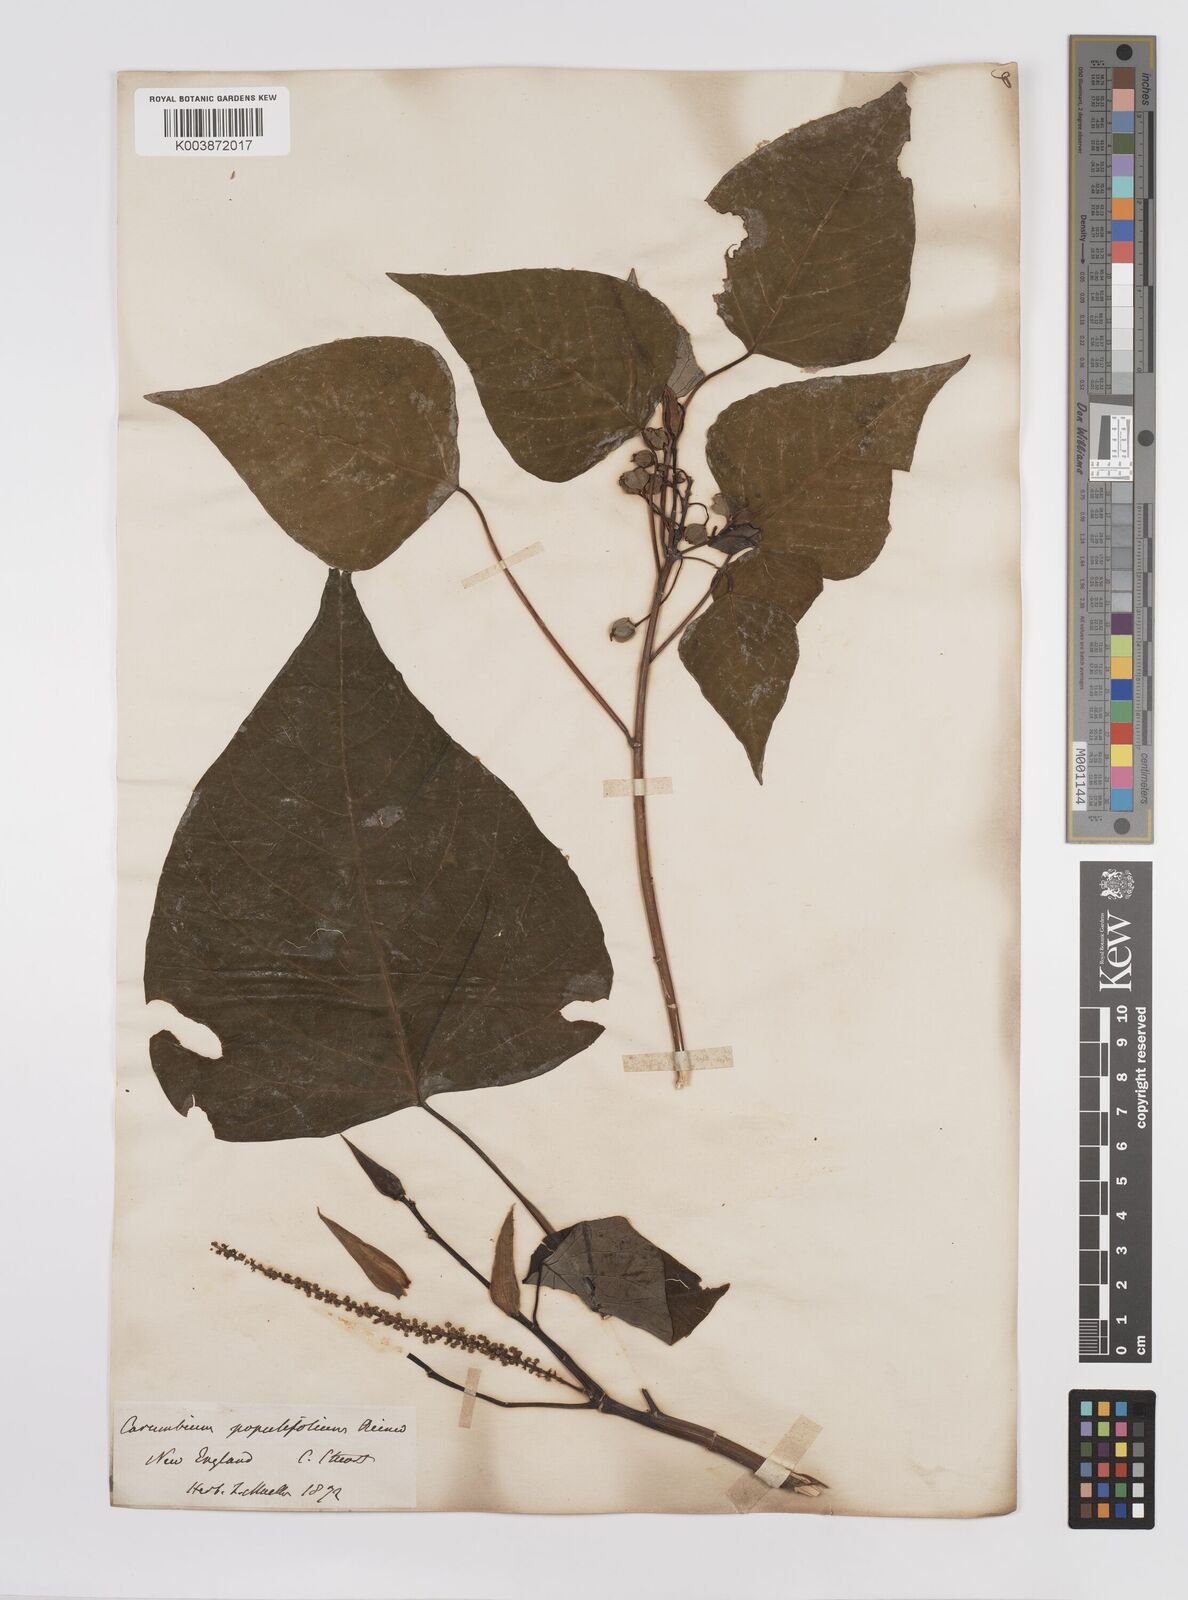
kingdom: Plantae
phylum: Tracheophyta
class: Magnoliopsida
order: Malpighiales
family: Euphorbiaceae
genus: Homalanthus
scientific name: Homalanthus populifolius
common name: Queensland poplar
